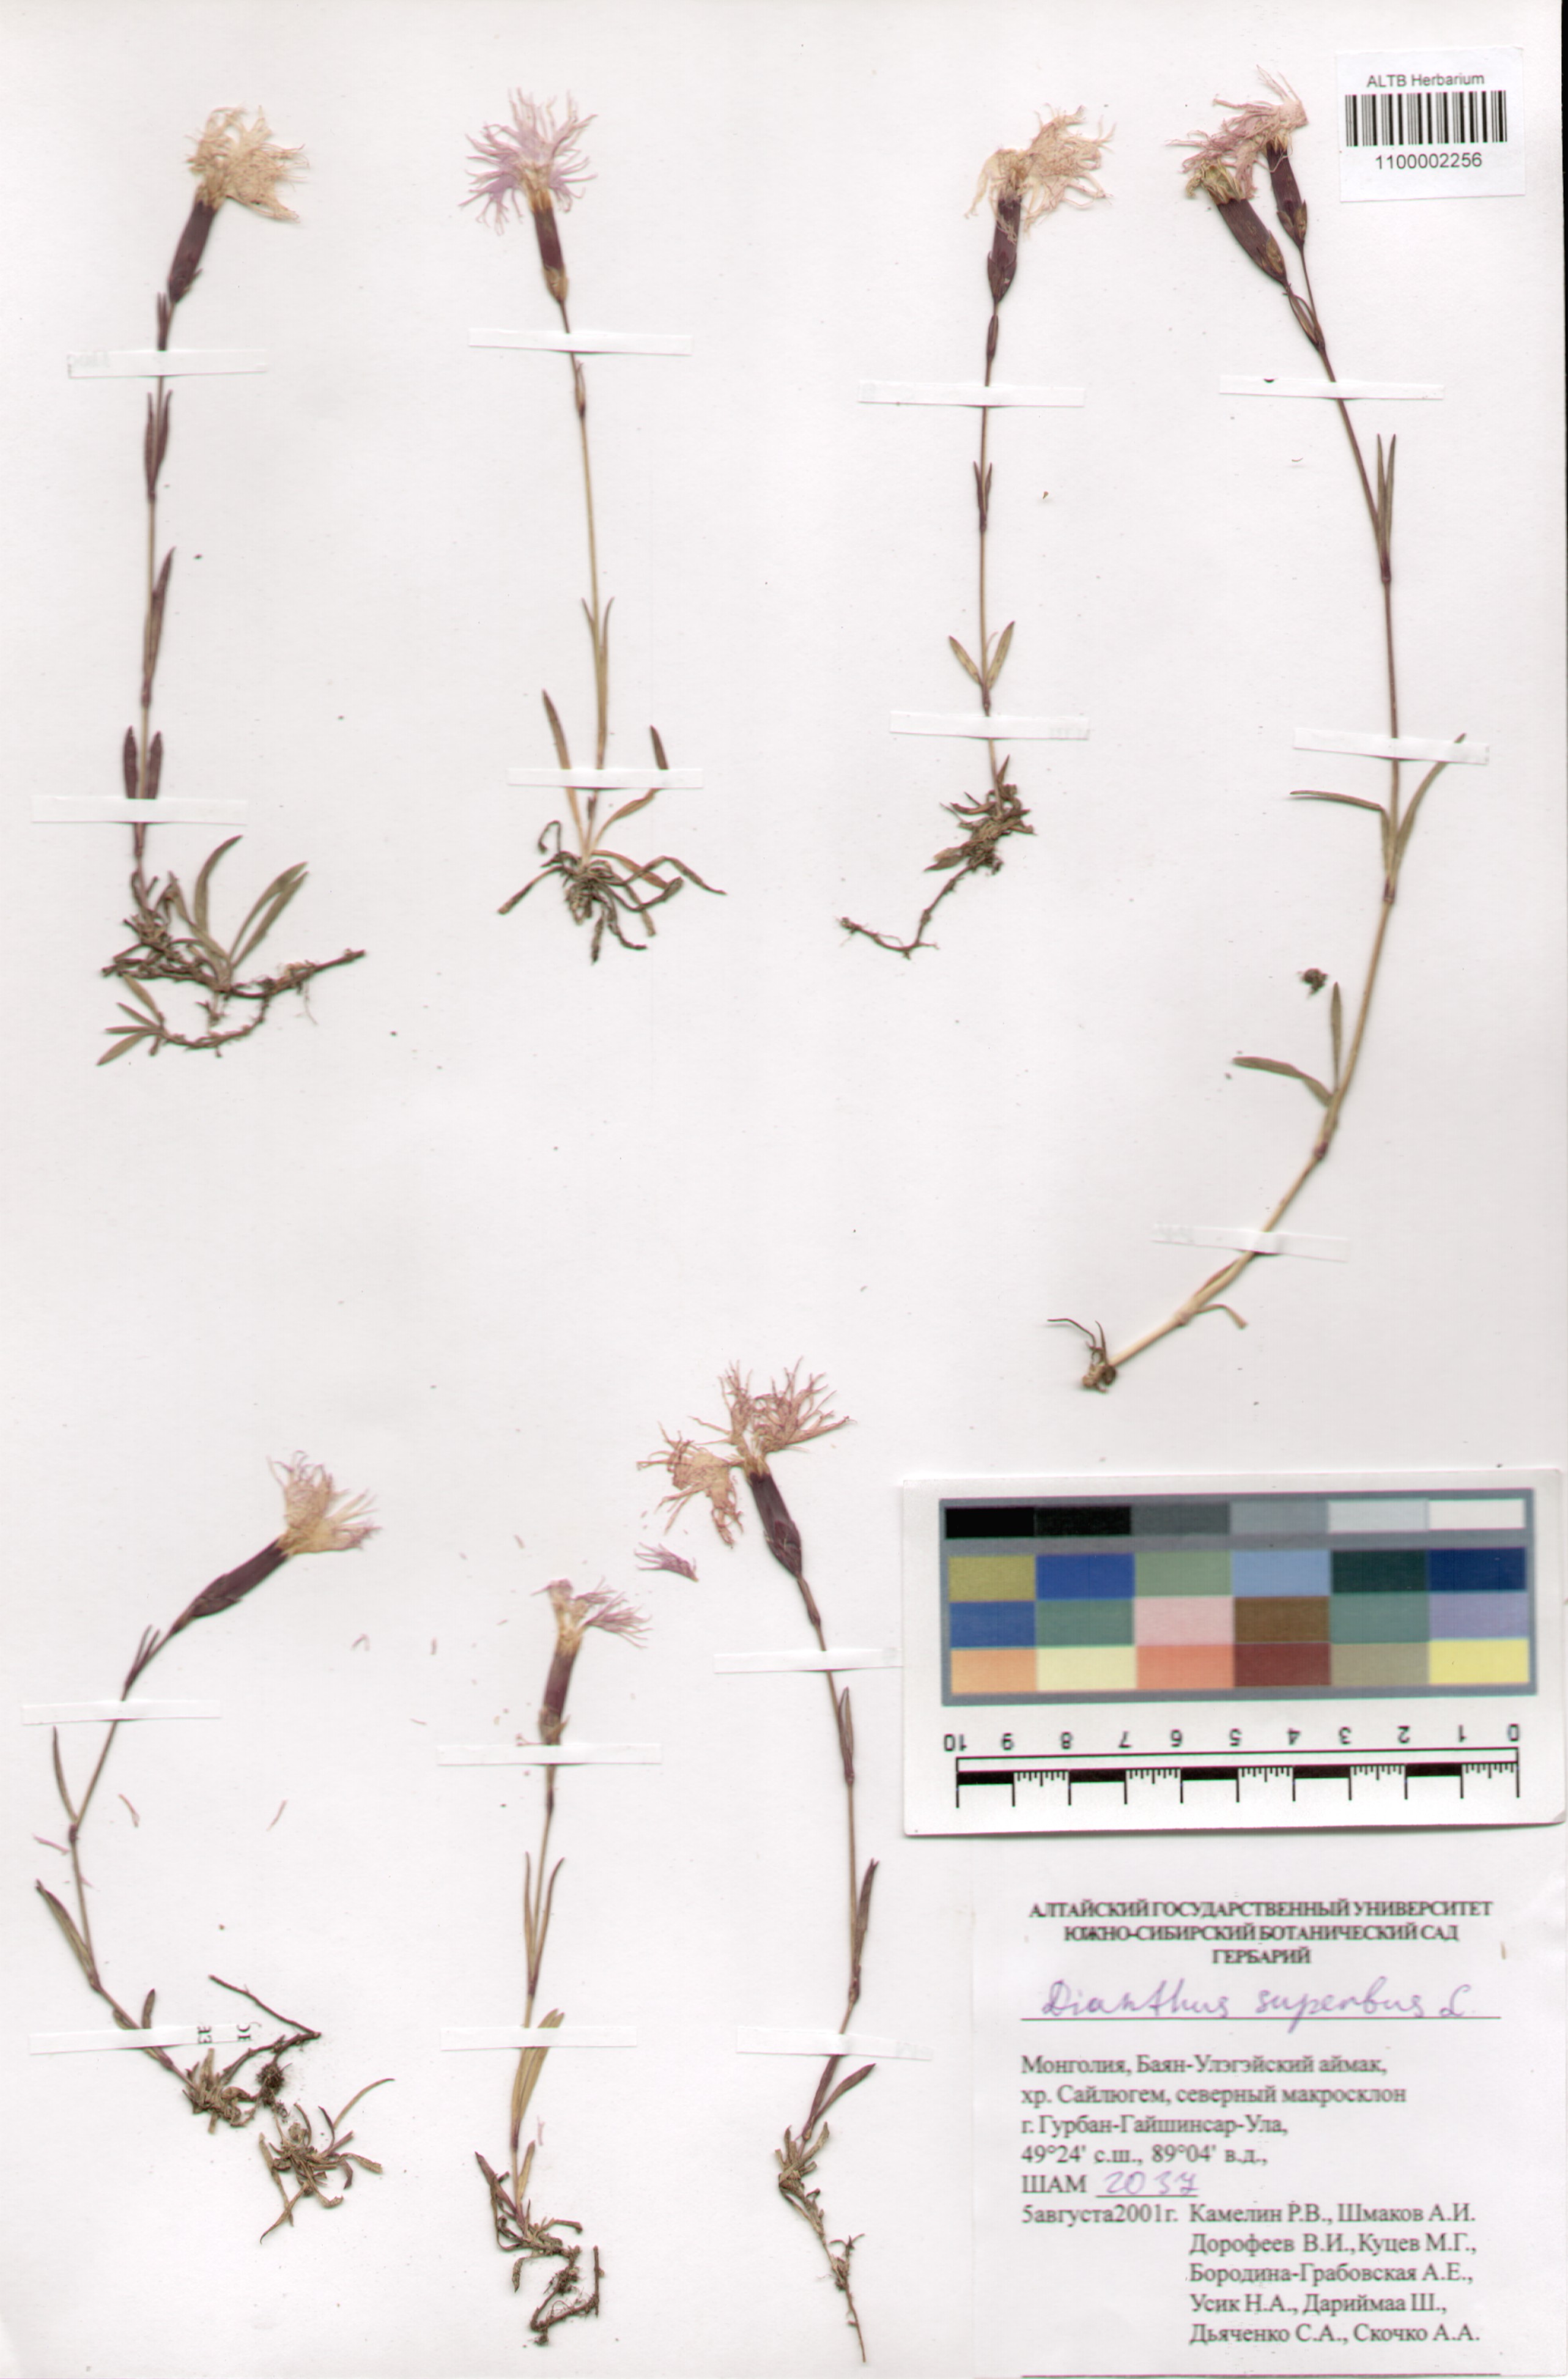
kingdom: Plantae
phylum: Tracheophyta
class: Magnoliopsida
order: Caryophyllales
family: Caryophyllaceae
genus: Dianthus
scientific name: Dianthus superbus
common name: Fringed pink
